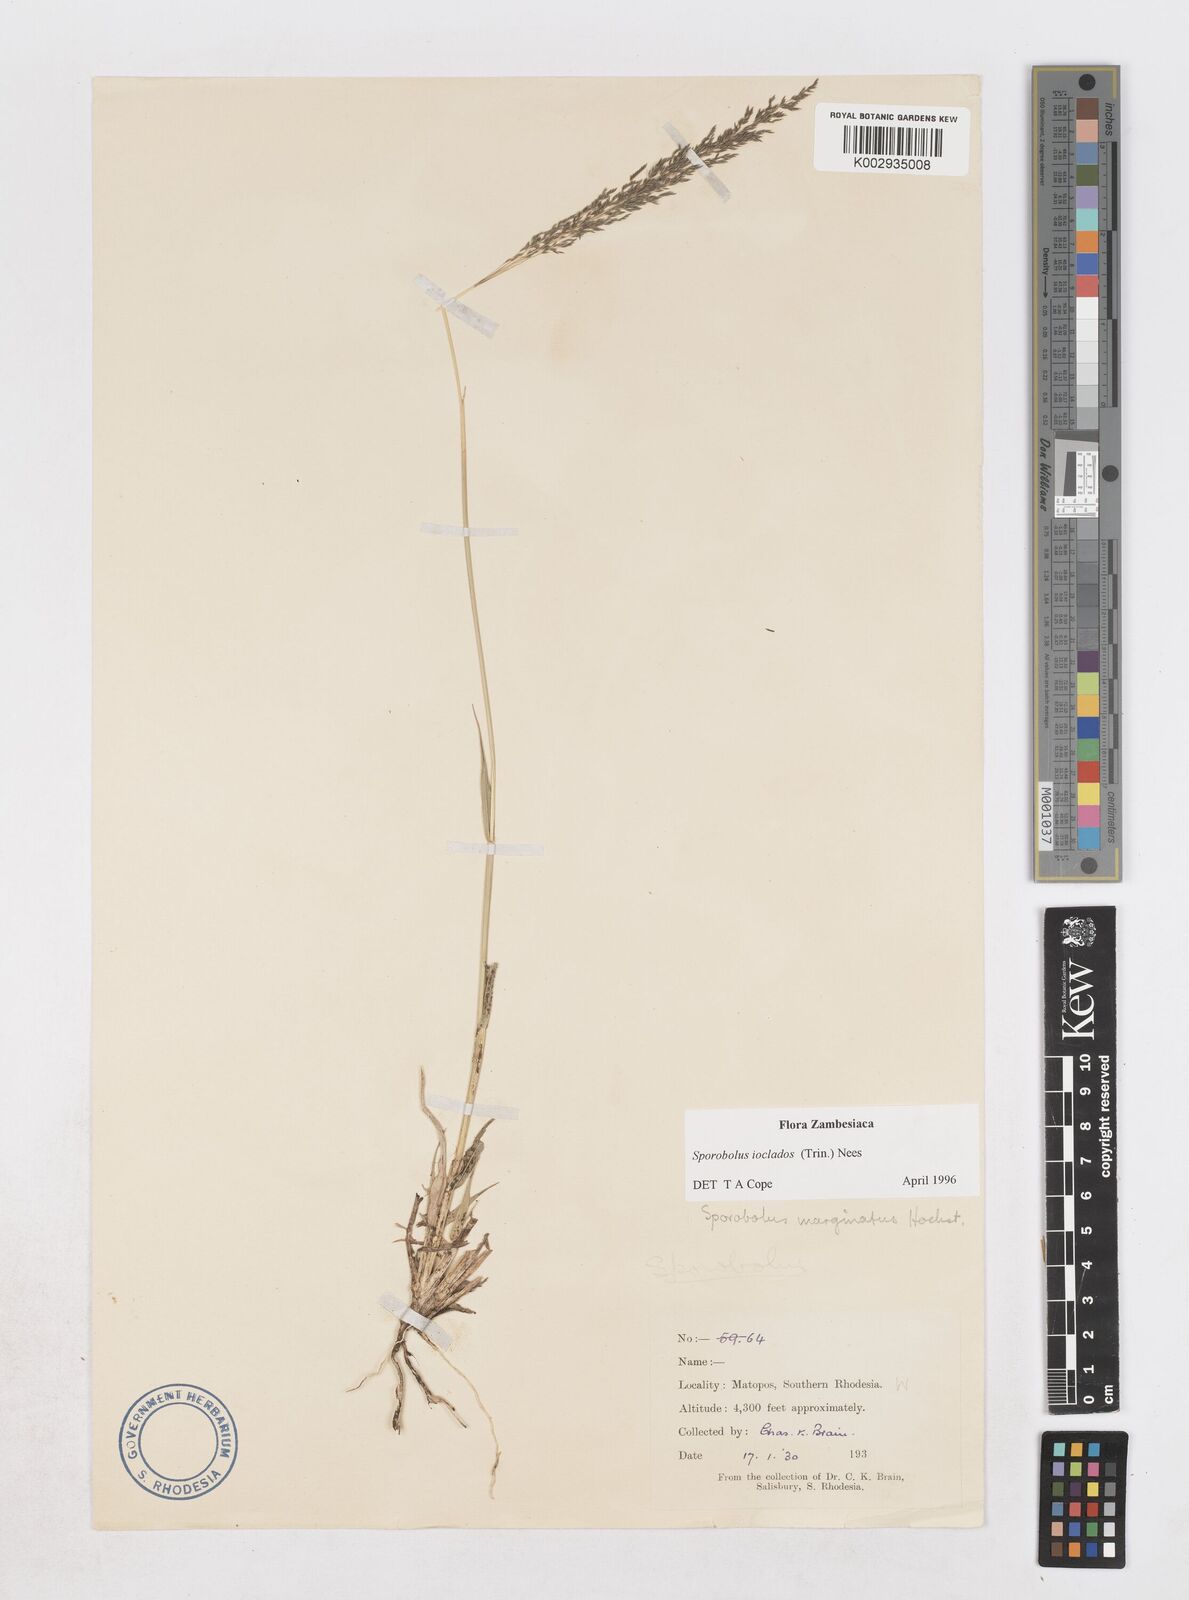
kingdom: Plantae
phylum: Tracheophyta
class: Liliopsida
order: Poales
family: Poaceae
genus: Sporobolus
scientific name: Sporobolus ioclados
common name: Pan dropseed
